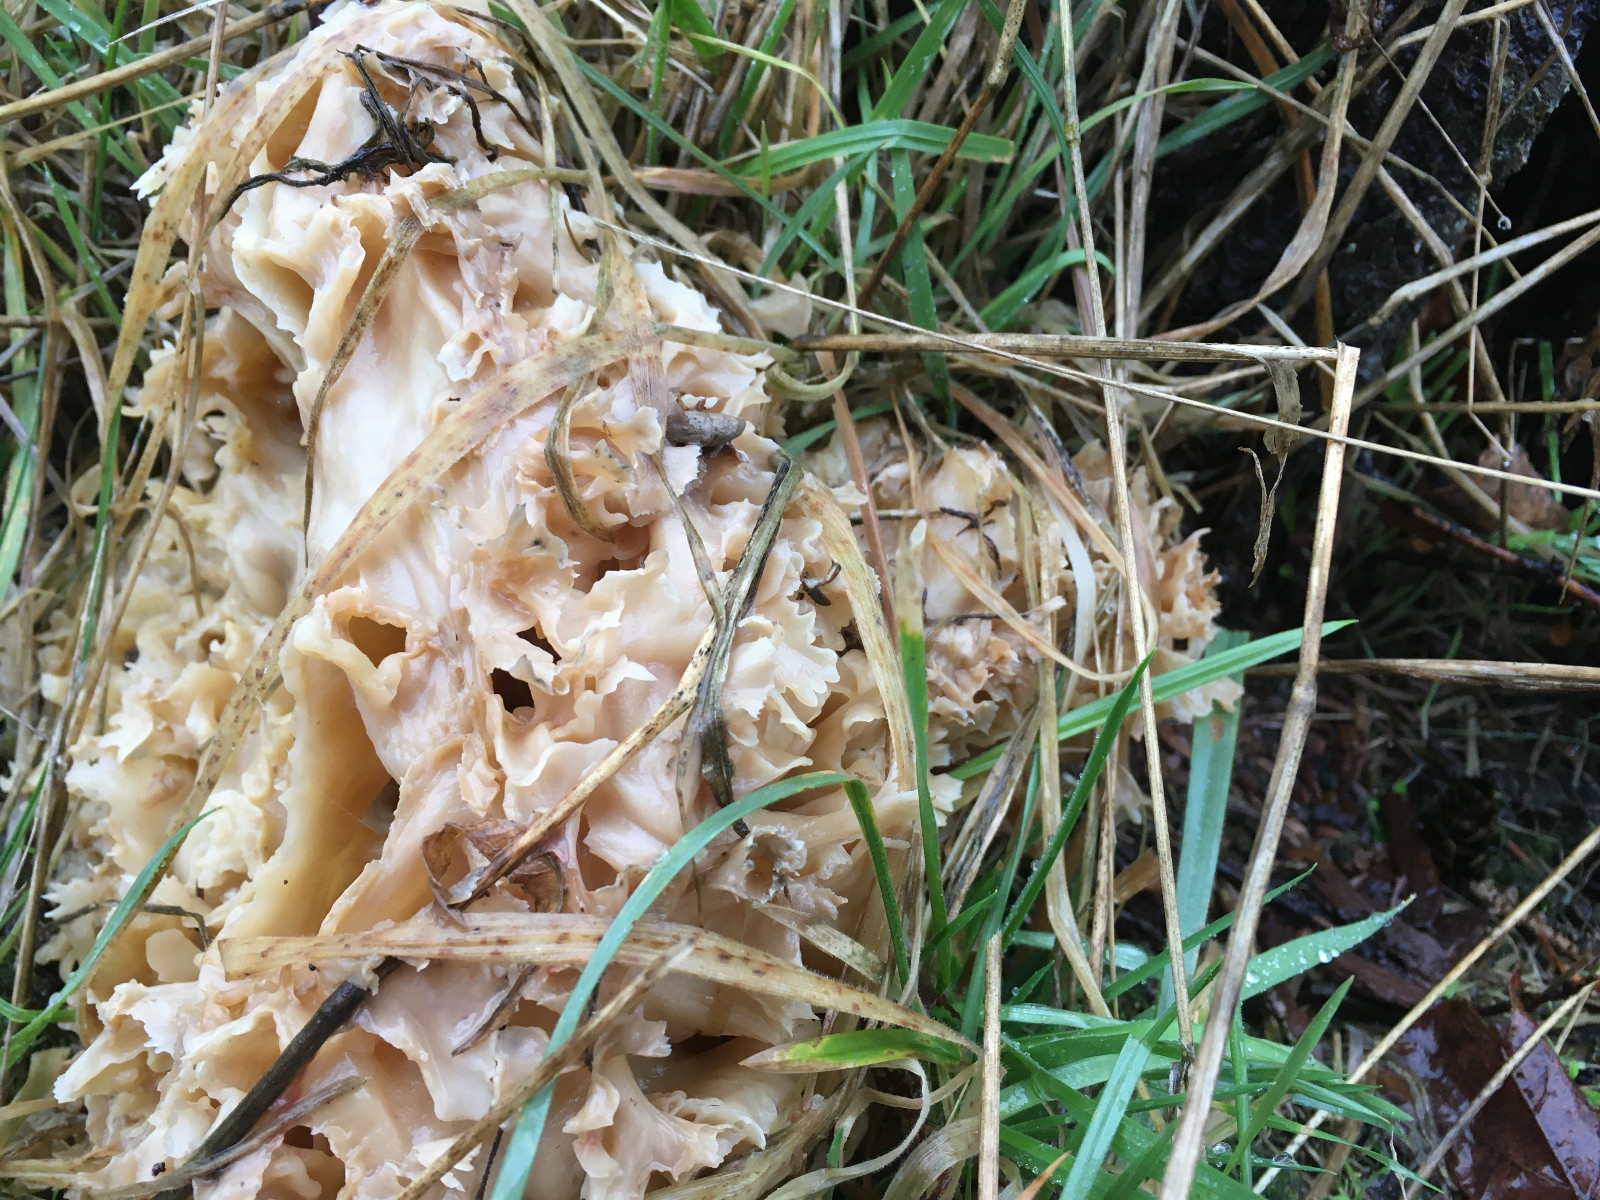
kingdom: Fungi
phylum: Basidiomycota
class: Agaricomycetes
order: Polyporales
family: Sparassidaceae
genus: Sparassis
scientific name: Sparassis crispa
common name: kruset blomkålssvamp
